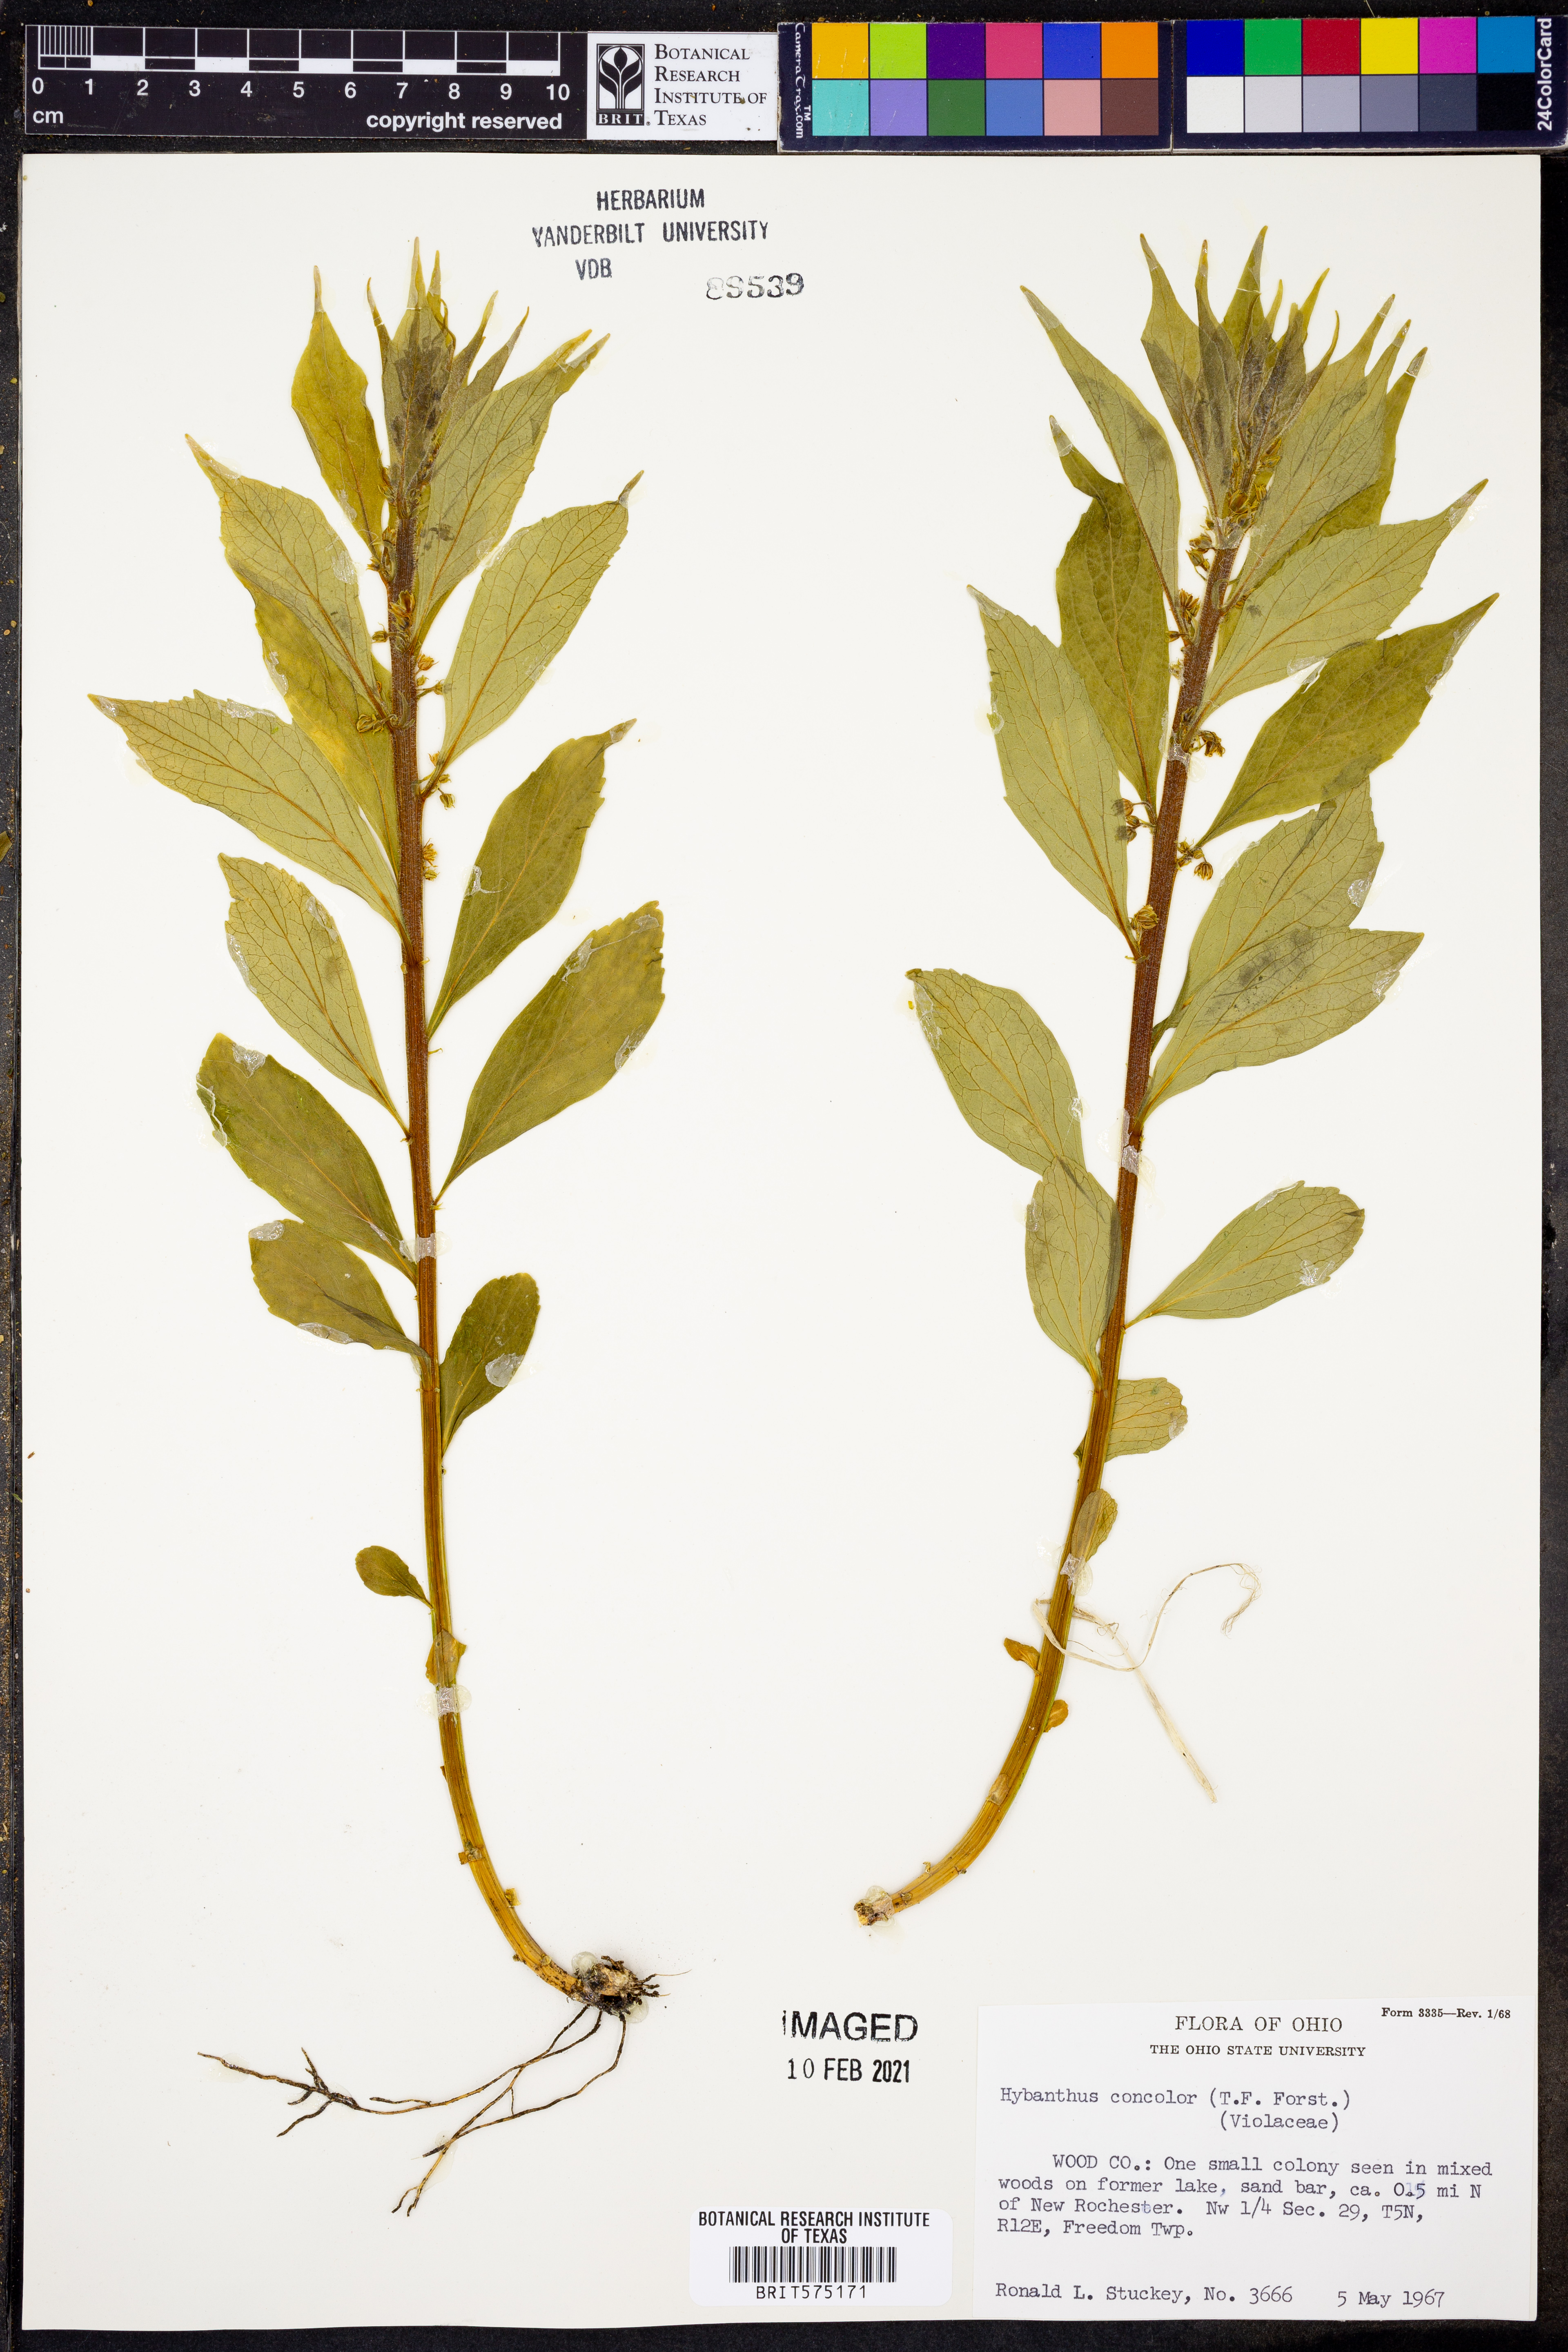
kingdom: Plantae
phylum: Tracheophyta
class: Magnoliopsida
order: Malpighiales
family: Violaceae
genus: Cubelium
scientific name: Cubelium concolor
